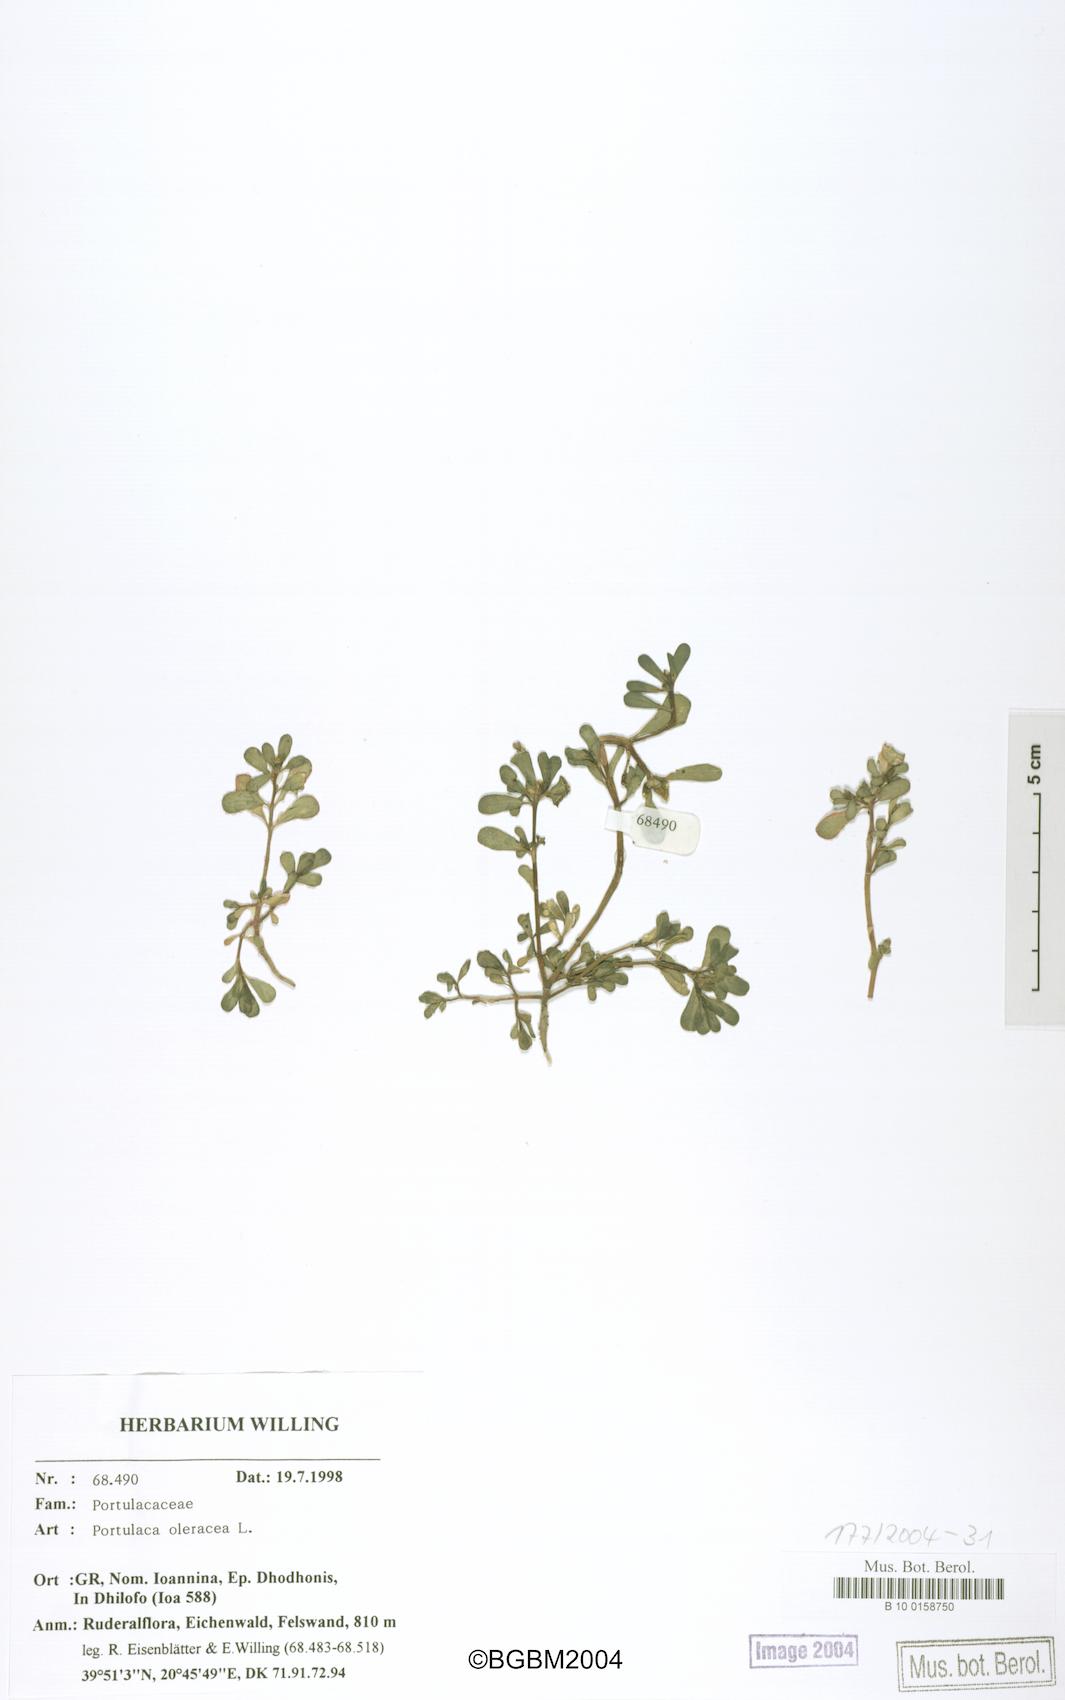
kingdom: Plantae
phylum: Tracheophyta
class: Magnoliopsida
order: Caryophyllales
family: Portulacaceae
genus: Portulaca
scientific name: Portulaca oleracea
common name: Common purslane
